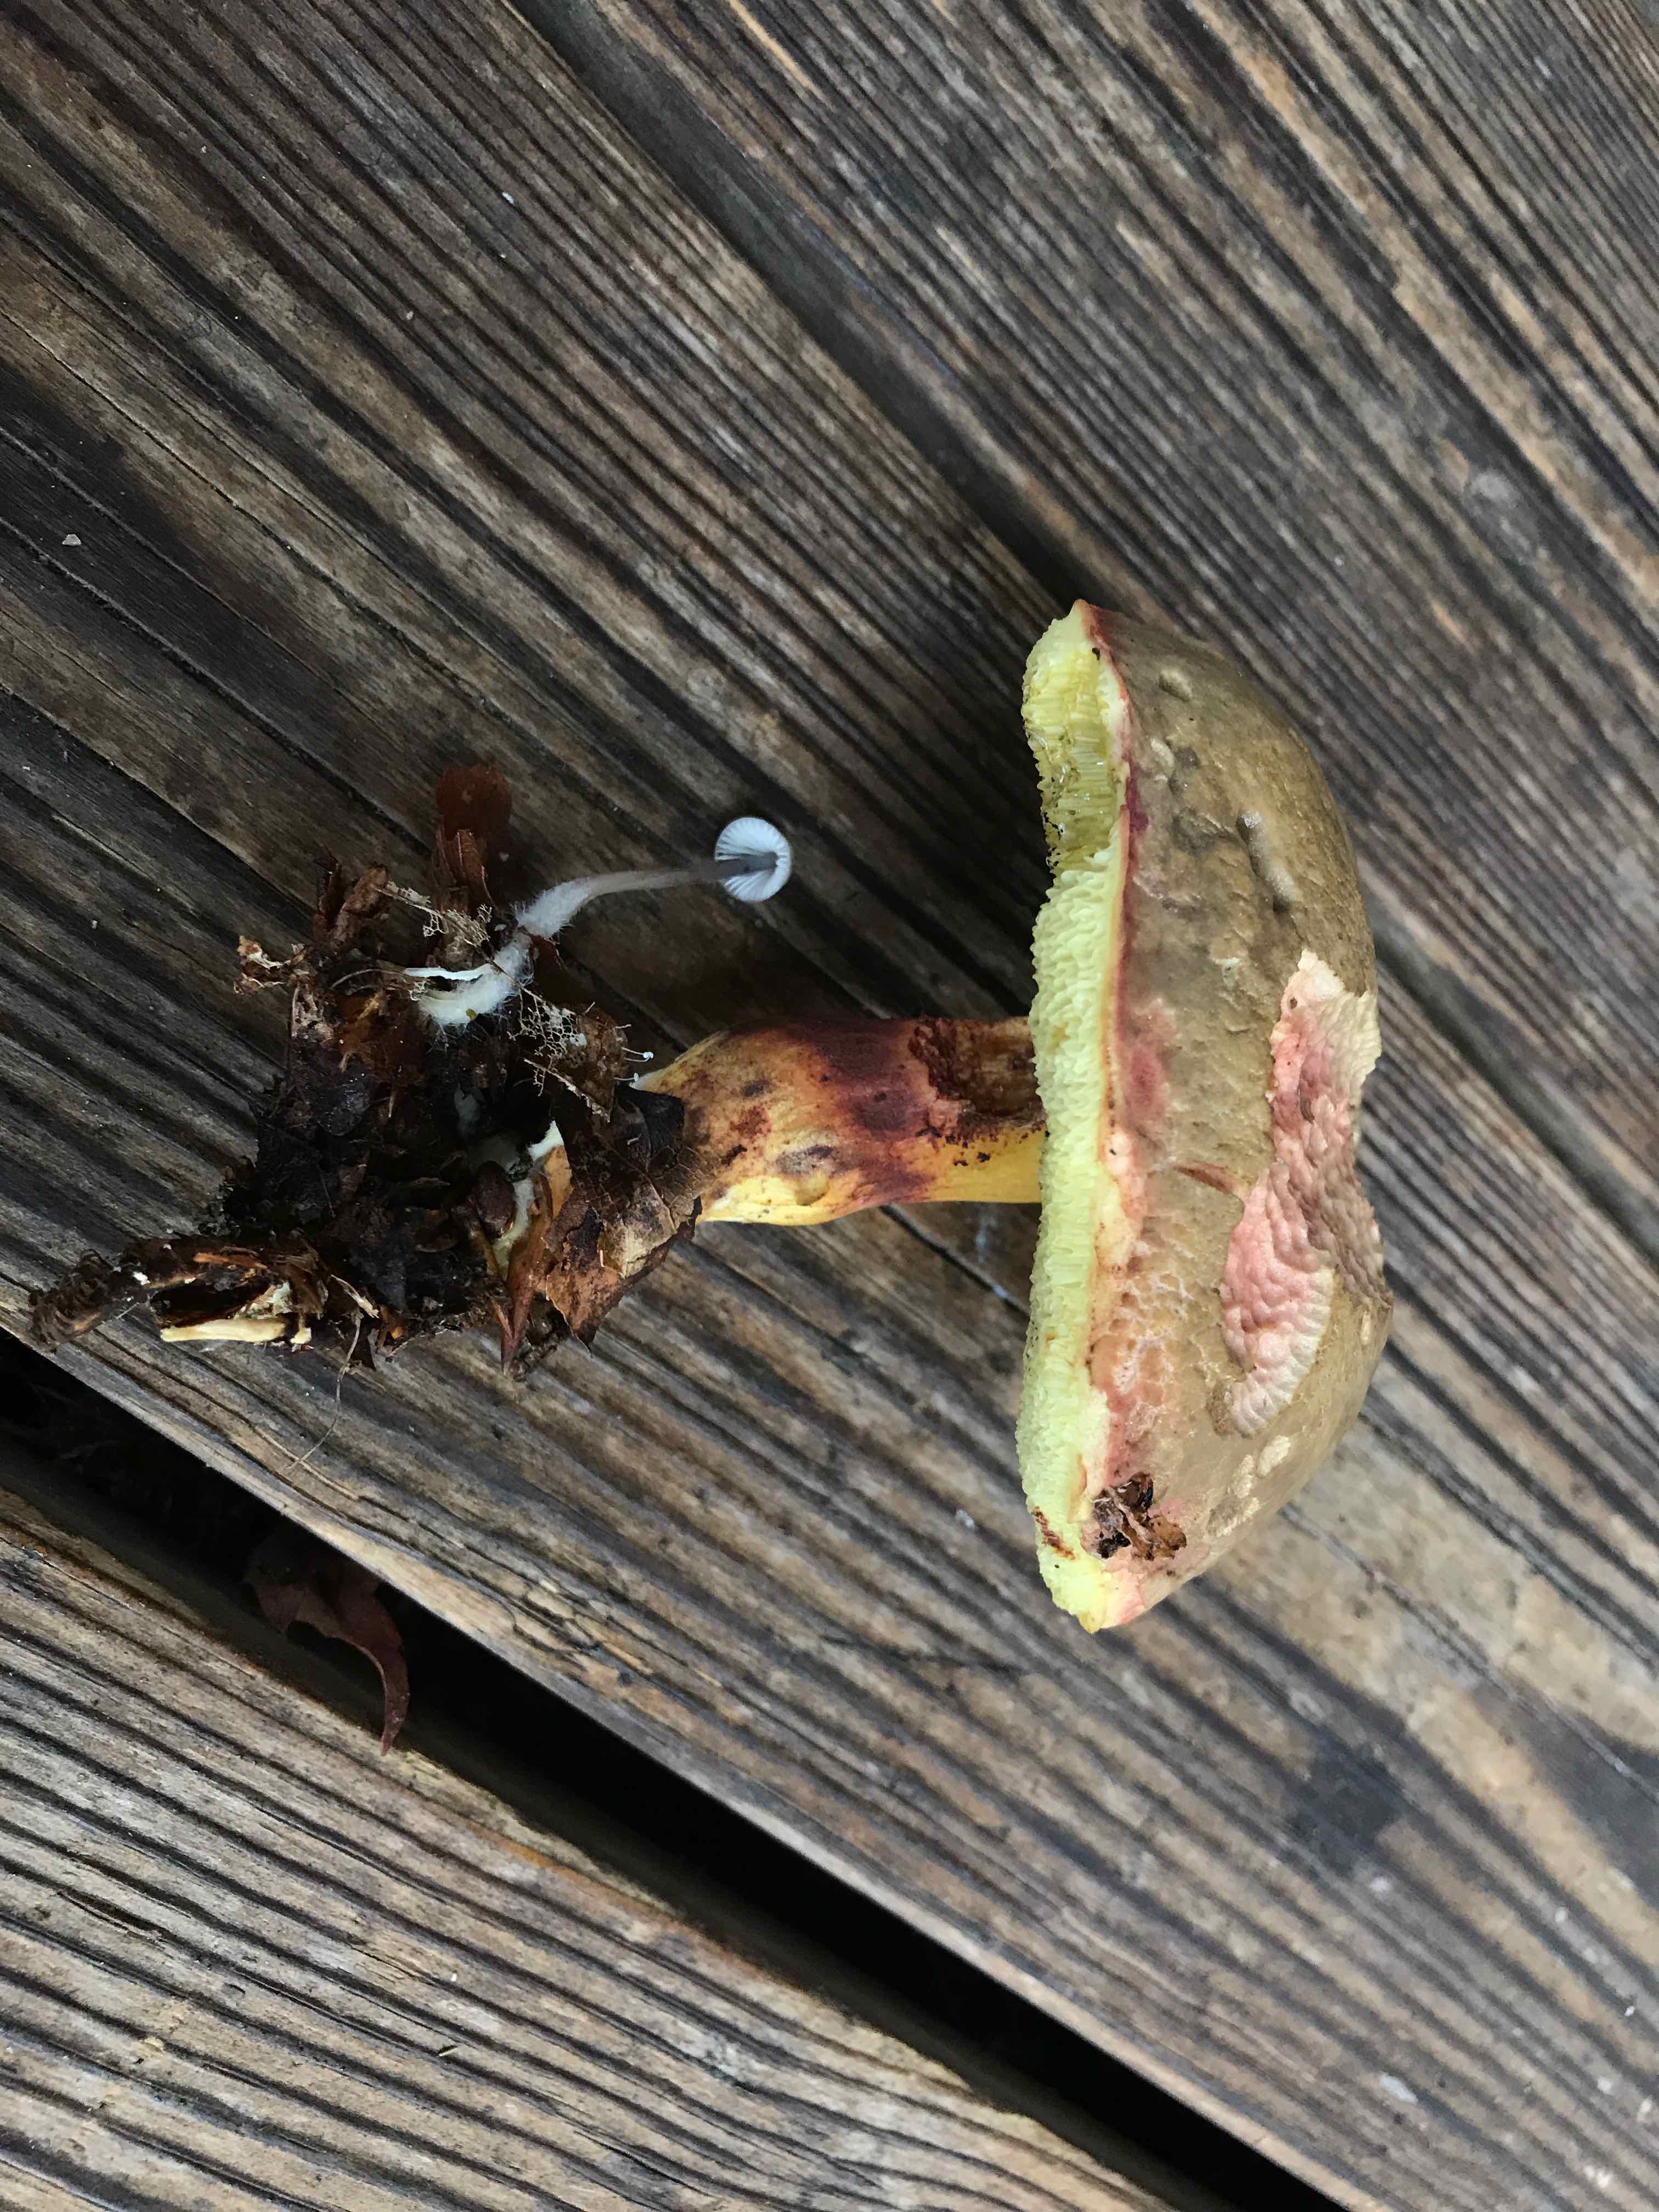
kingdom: Fungi
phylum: Basidiomycota
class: Agaricomycetes
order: Boletales
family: Boletaceae
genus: Xerocomellus
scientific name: Xerocomellus pruinatus
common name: dugget rørhat
